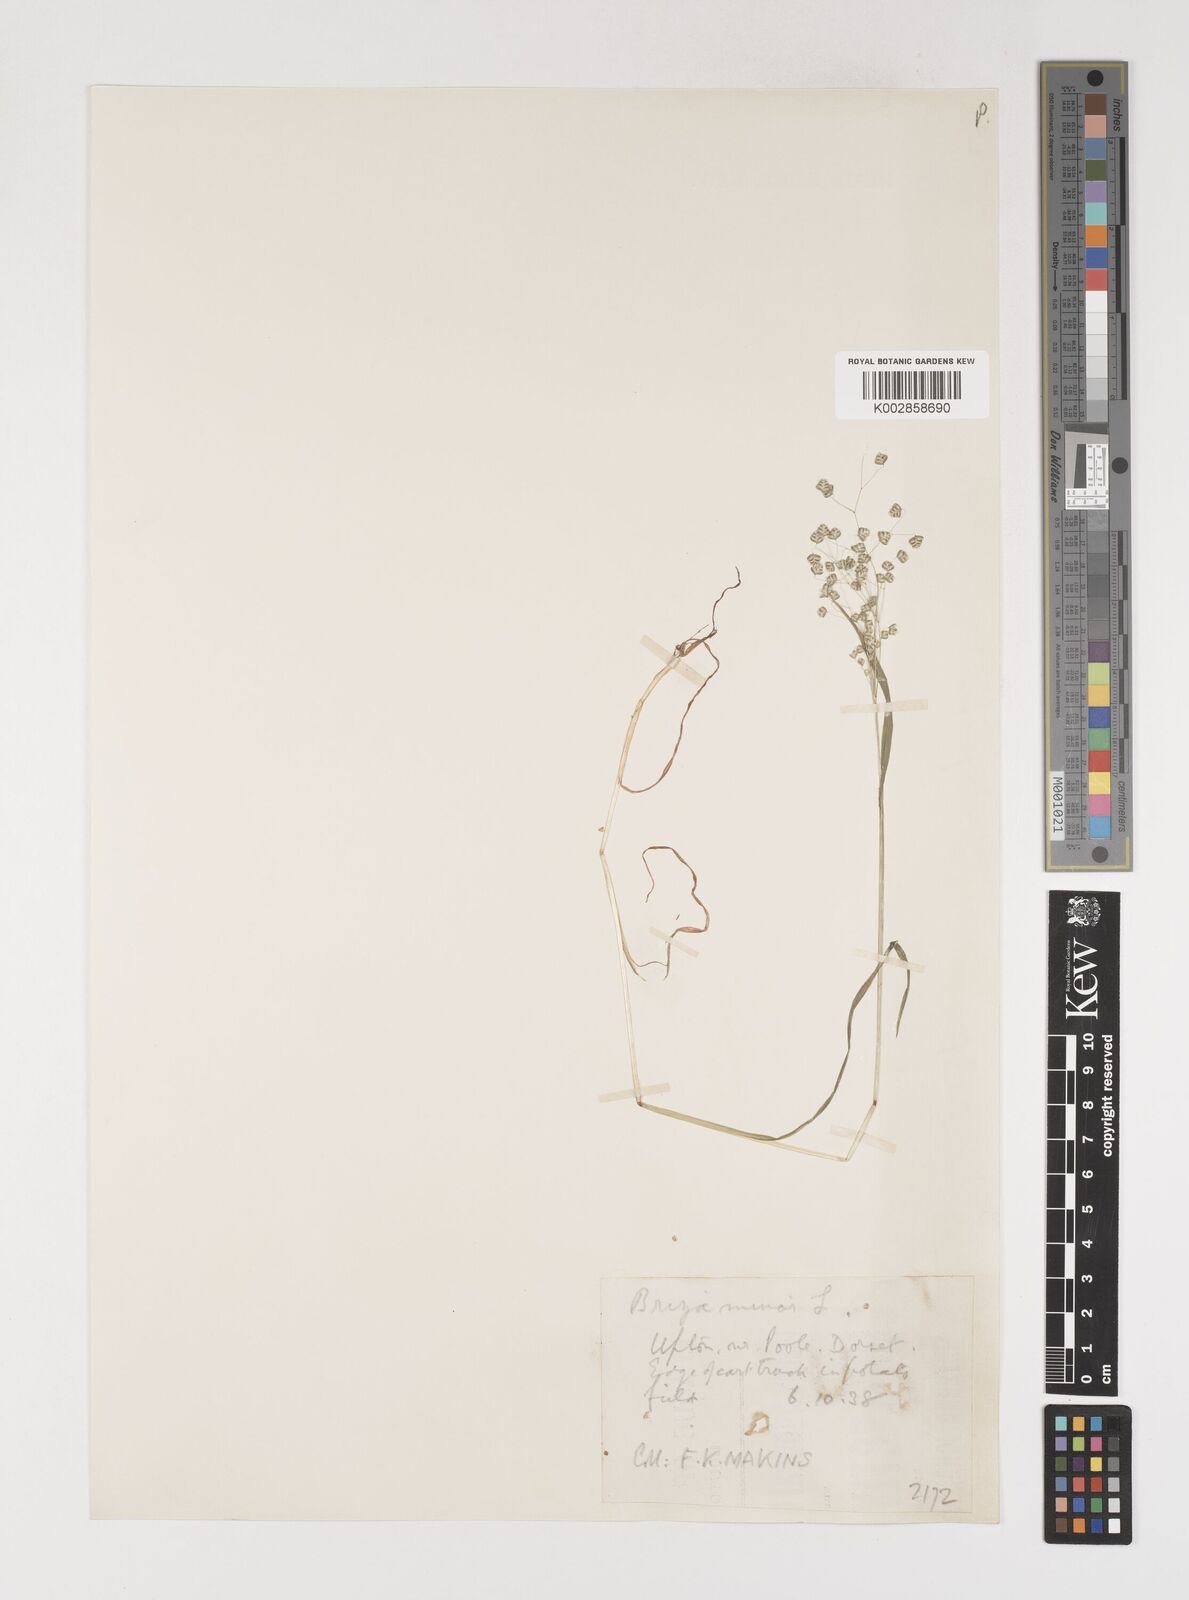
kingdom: Plantae
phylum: Tracheophyta
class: Liliopsida
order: Poales
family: Poaceae
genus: Briza
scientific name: Briza minor
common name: Lesser quaking-grass
